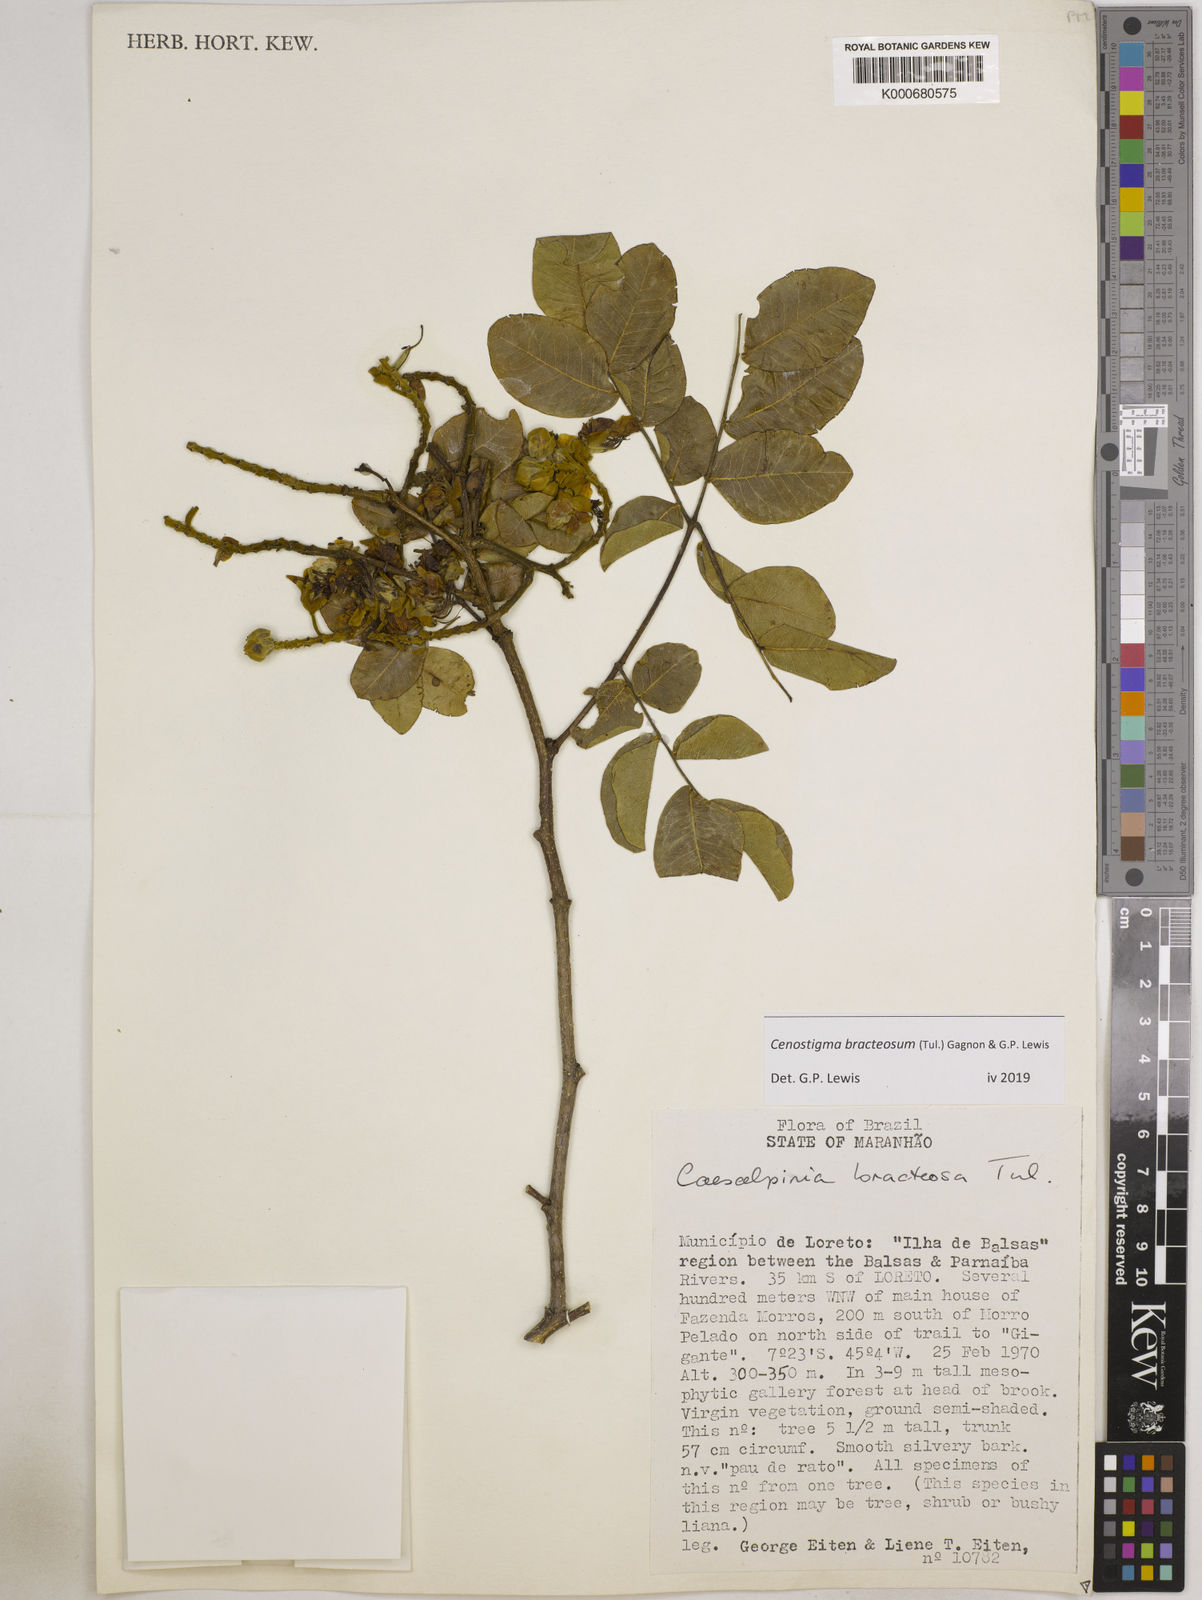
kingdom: Plantae
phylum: Tracheophyta
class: Magnoliopsida
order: Fabales
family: Fabaceae
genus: Cenostigma
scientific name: Cenostigma bracteosum
